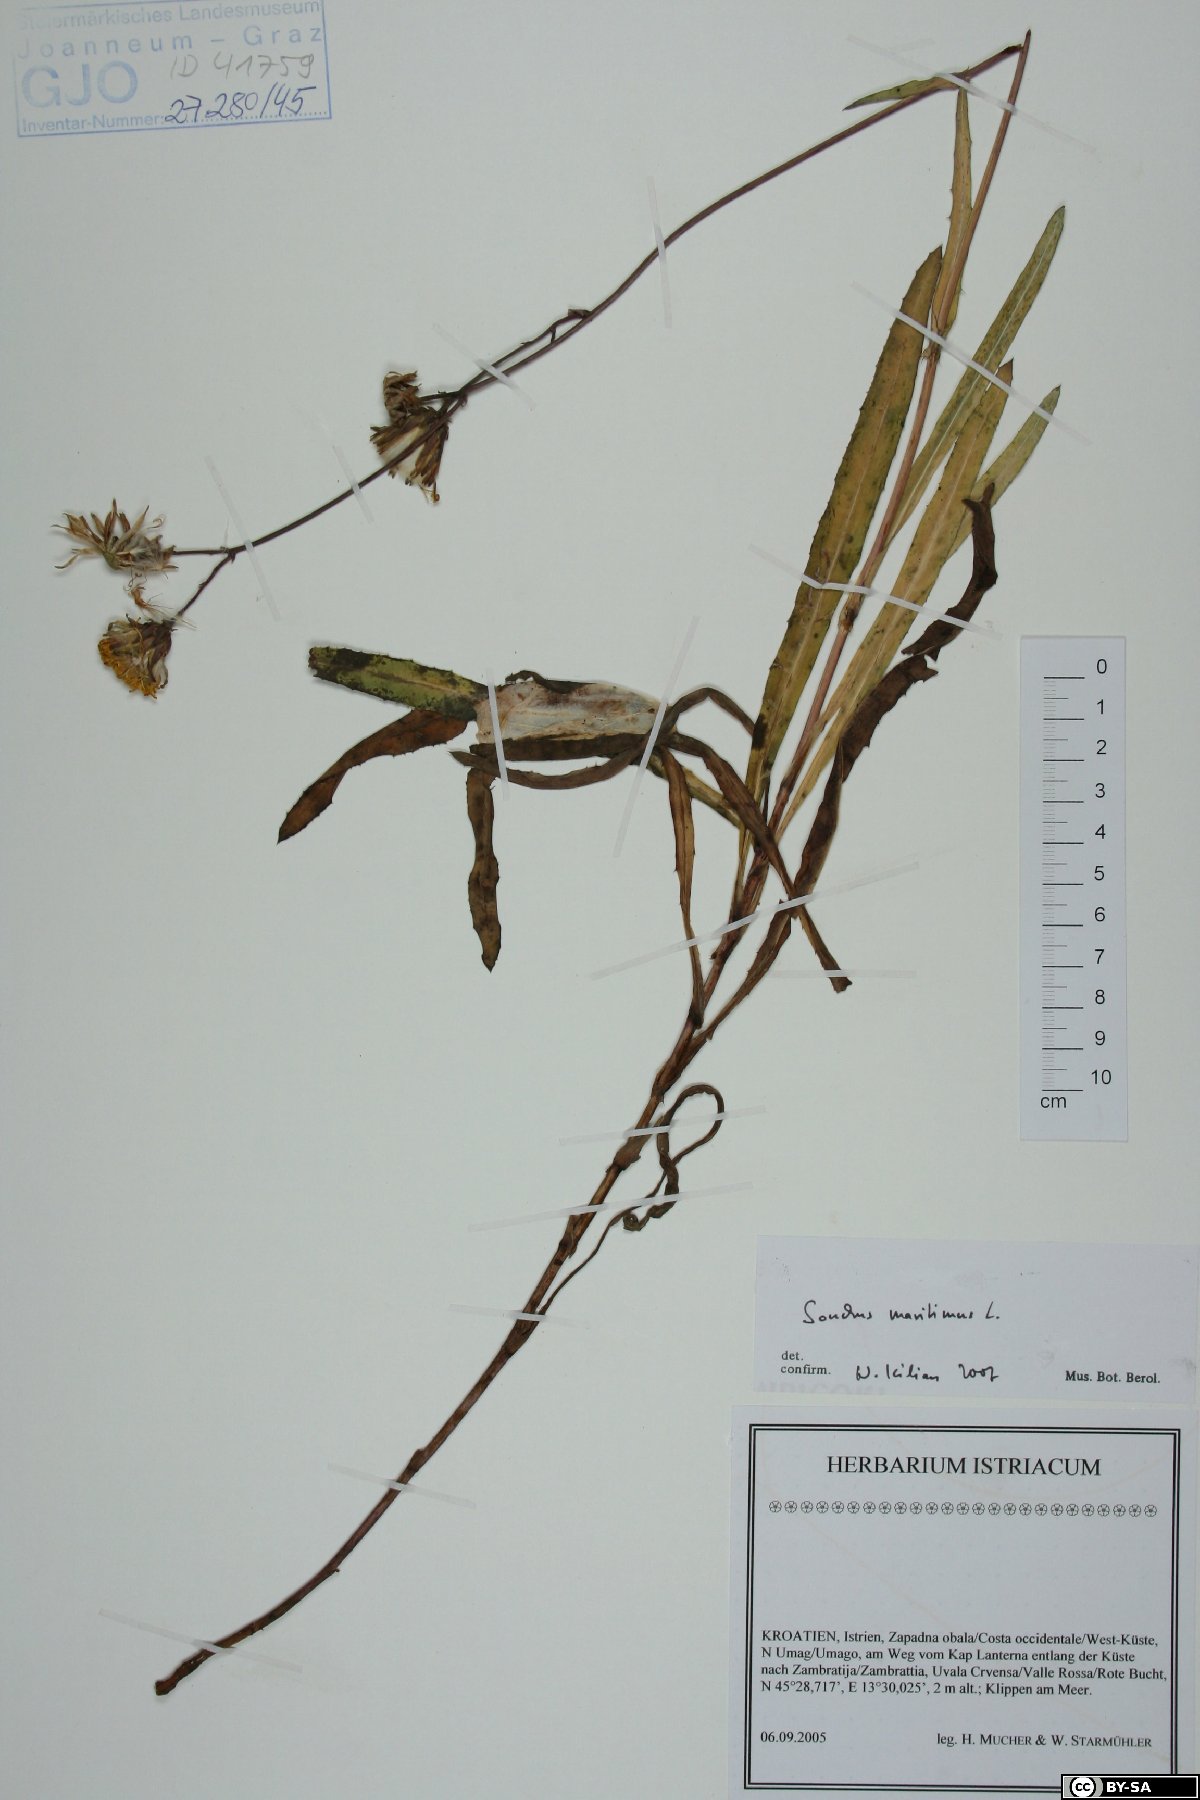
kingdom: Plantae
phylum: Tracheophyta
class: Magnoliopsida
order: Asterales
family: Asteraceae
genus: Sonchus
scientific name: Sonchus maritimus
